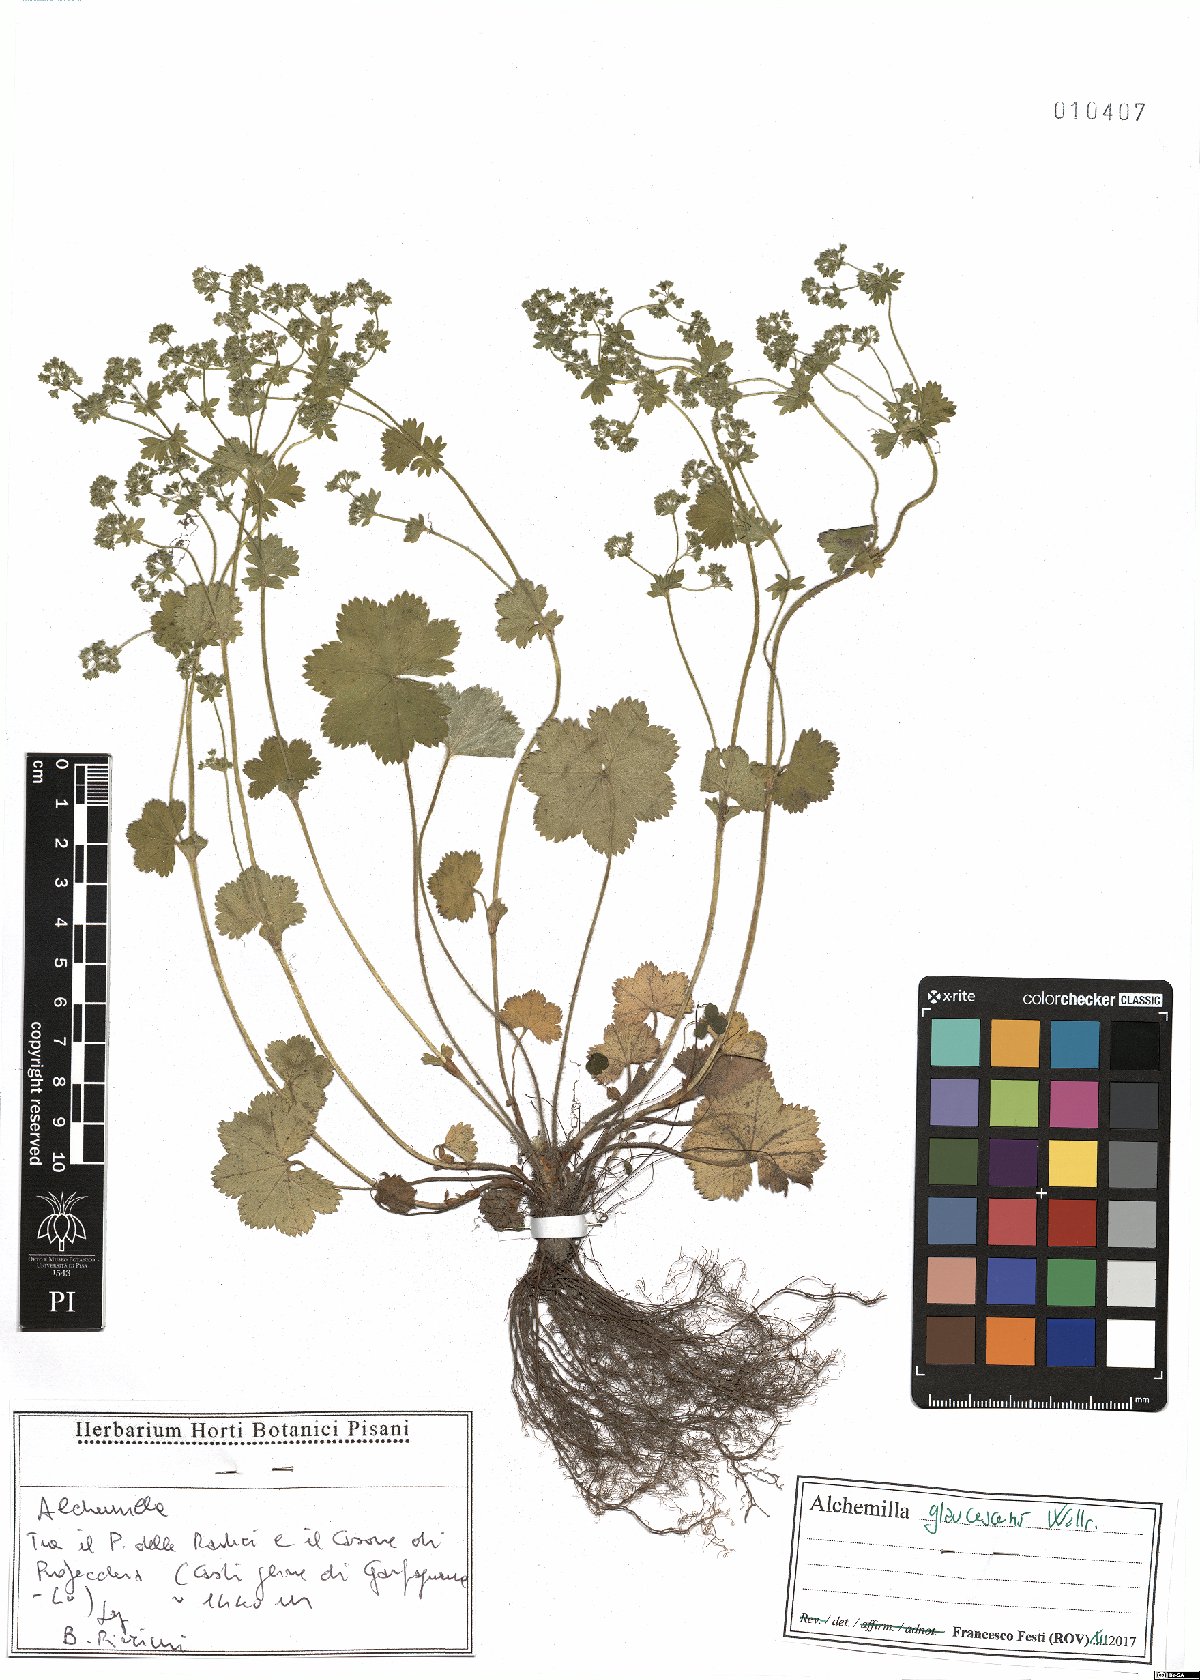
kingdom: Plantae
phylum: Tracheophyta
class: Magnoliopsida
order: Rosales
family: Rosaceae
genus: Alchemilla
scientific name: Alchemilla glaucescens
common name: Silky lady's mantle
